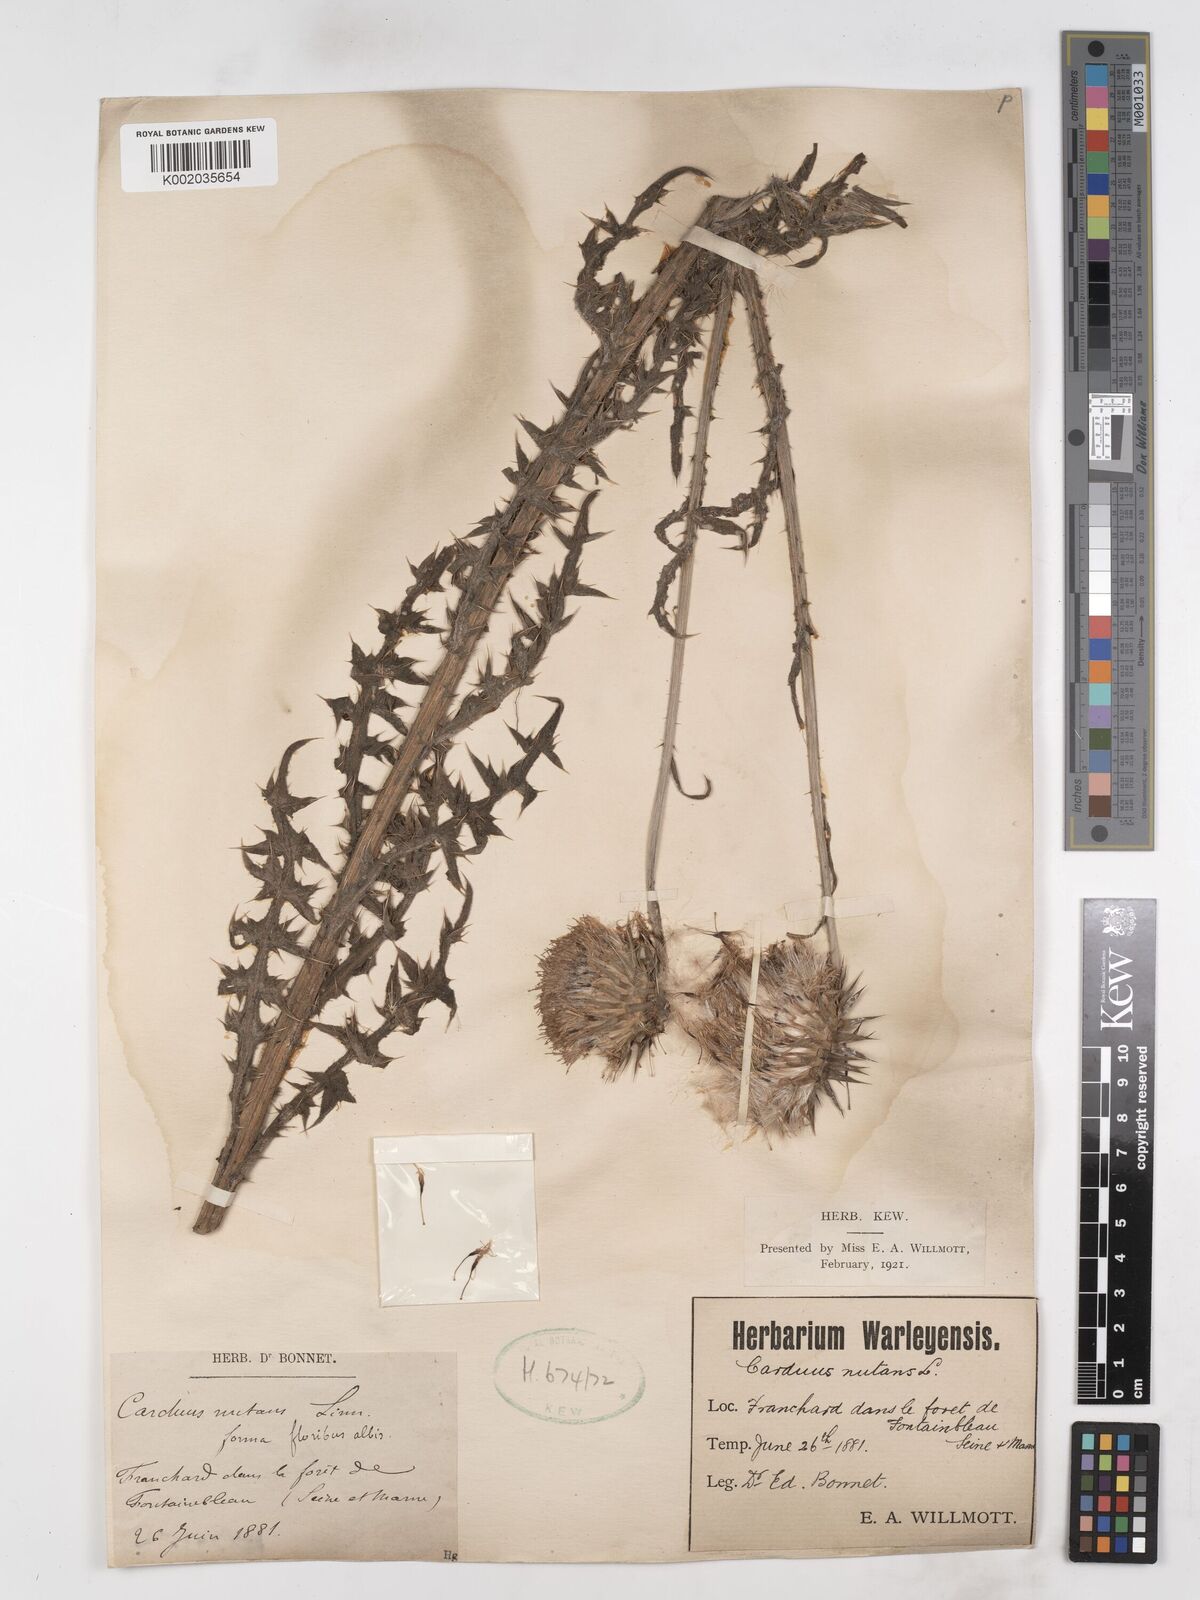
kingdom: Plantae
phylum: Tracheophyta
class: Magnoliopsida
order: Asterales
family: Asteraceae
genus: Carduus
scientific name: Carduus nutans
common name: Musk thistle
